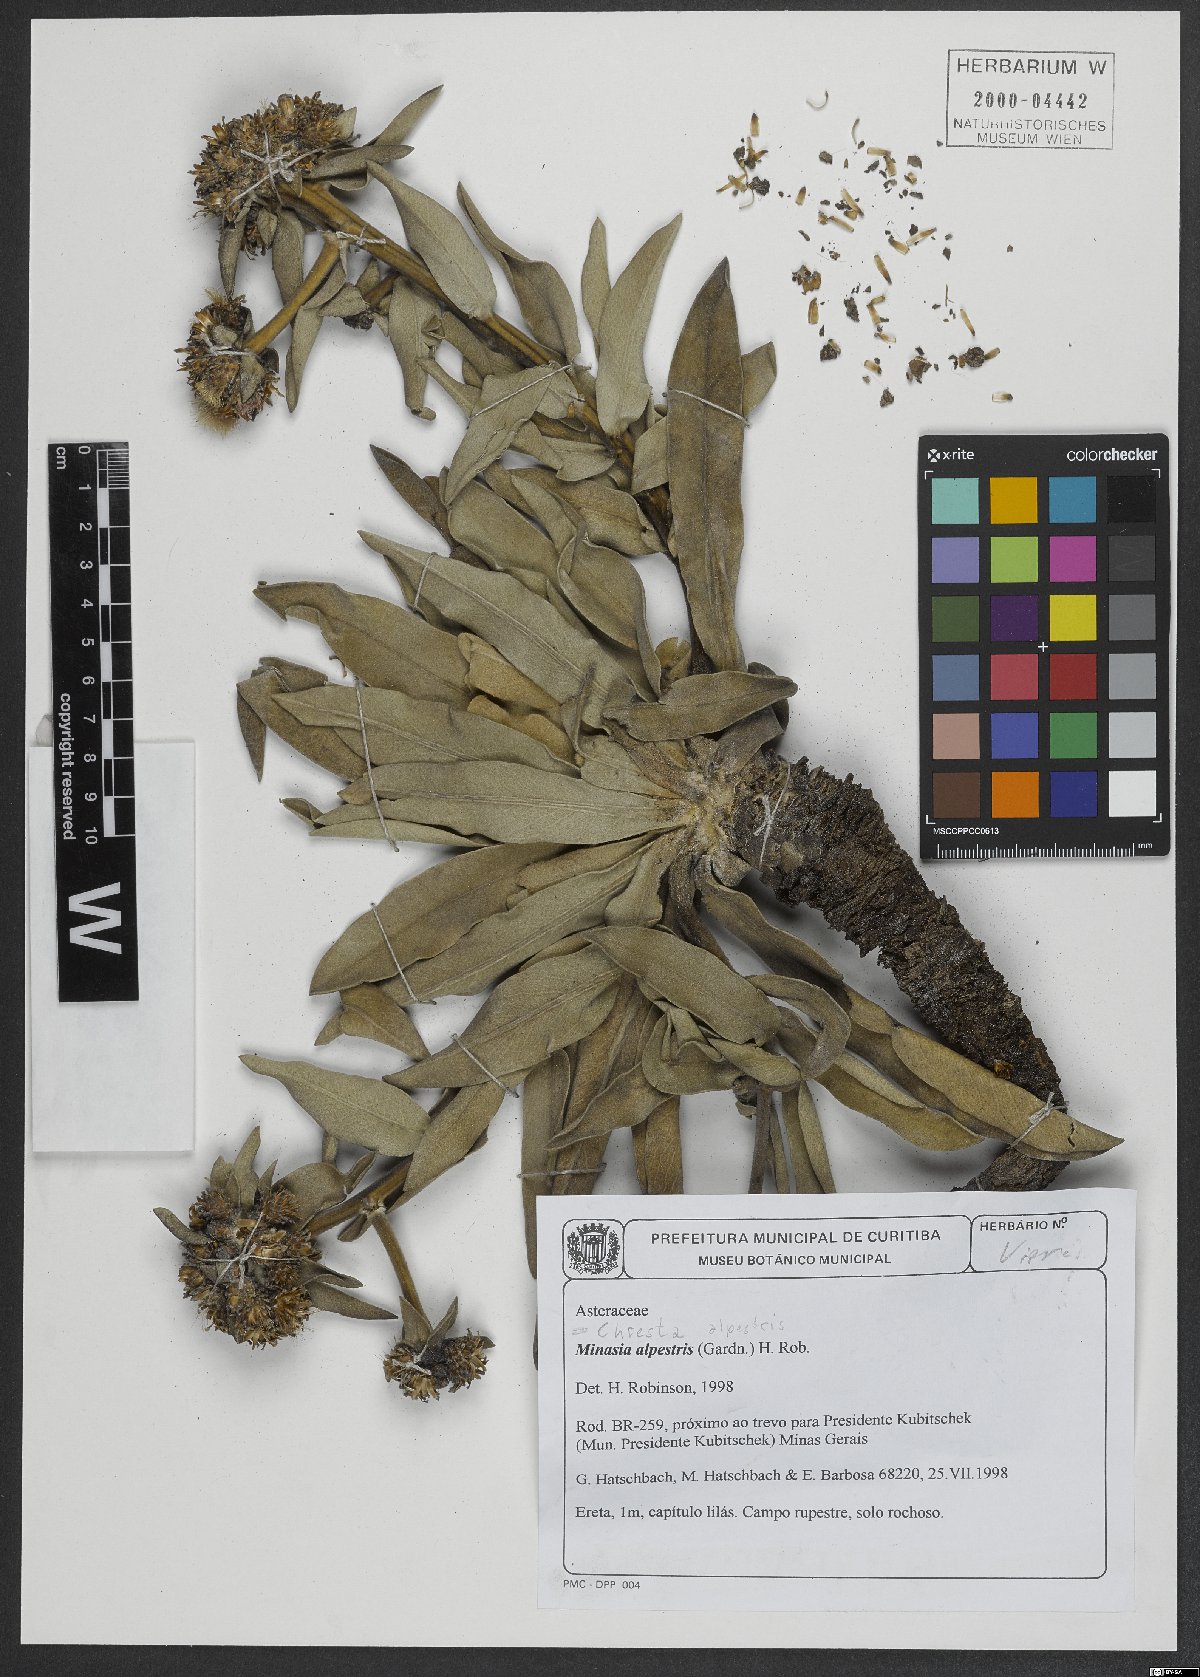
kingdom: Plantae
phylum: Tracheophyta
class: Magnoliopsida
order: Asterales
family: Asteraceae
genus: Minasia
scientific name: Minasia alpestris
